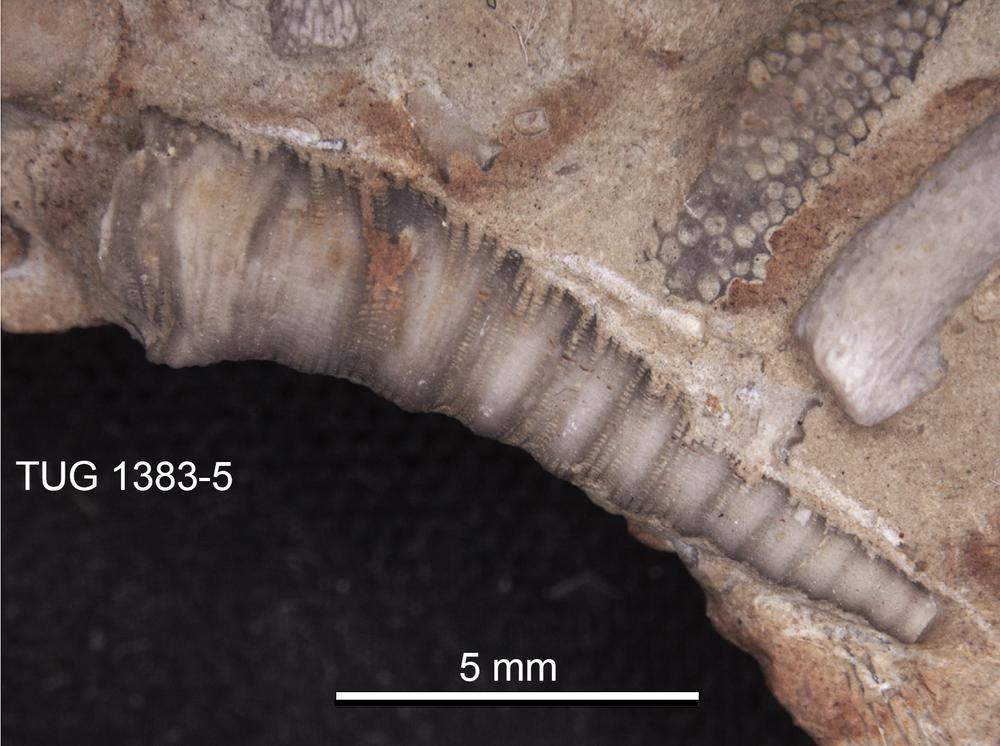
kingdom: Animalia
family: Cornulitidae
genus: Cornulites
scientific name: Cornulites
